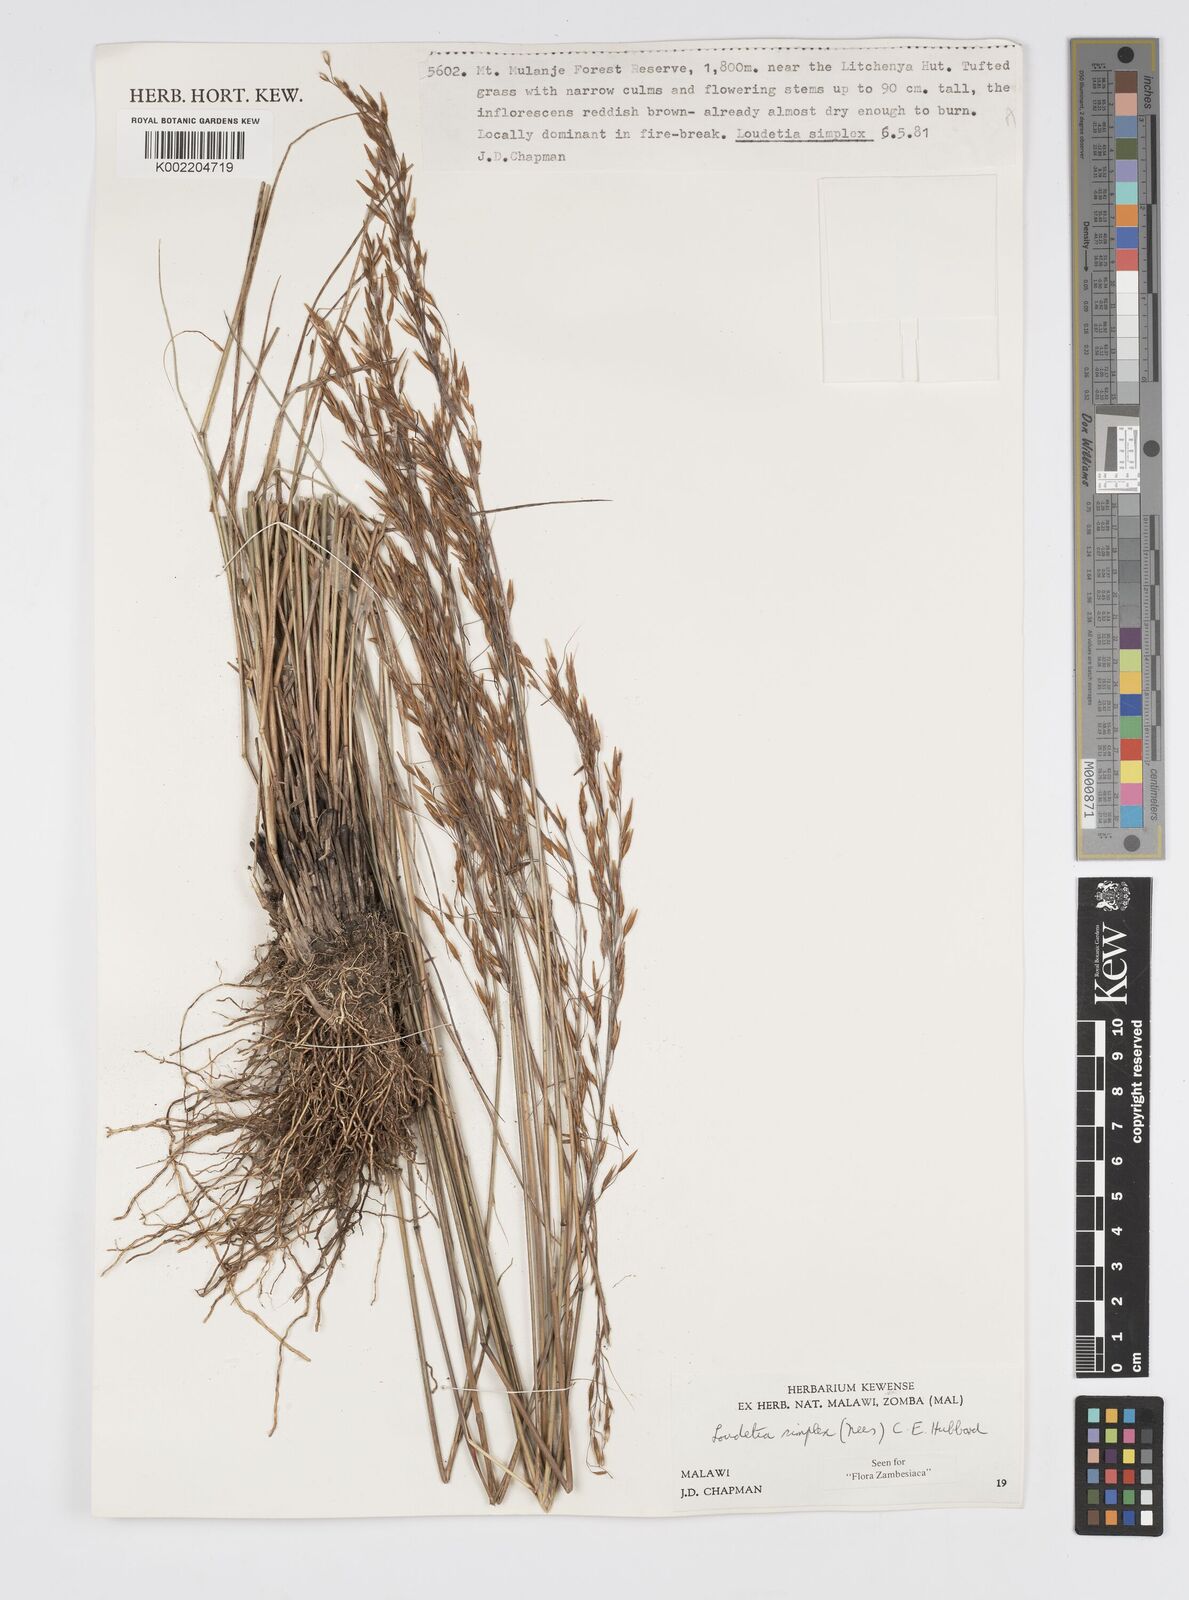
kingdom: Plantae
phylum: Tracheophyta
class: Liliopsida
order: Poales
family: Poaceae
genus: Loudetia
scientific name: Loudetia simplex
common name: Common russet grass
